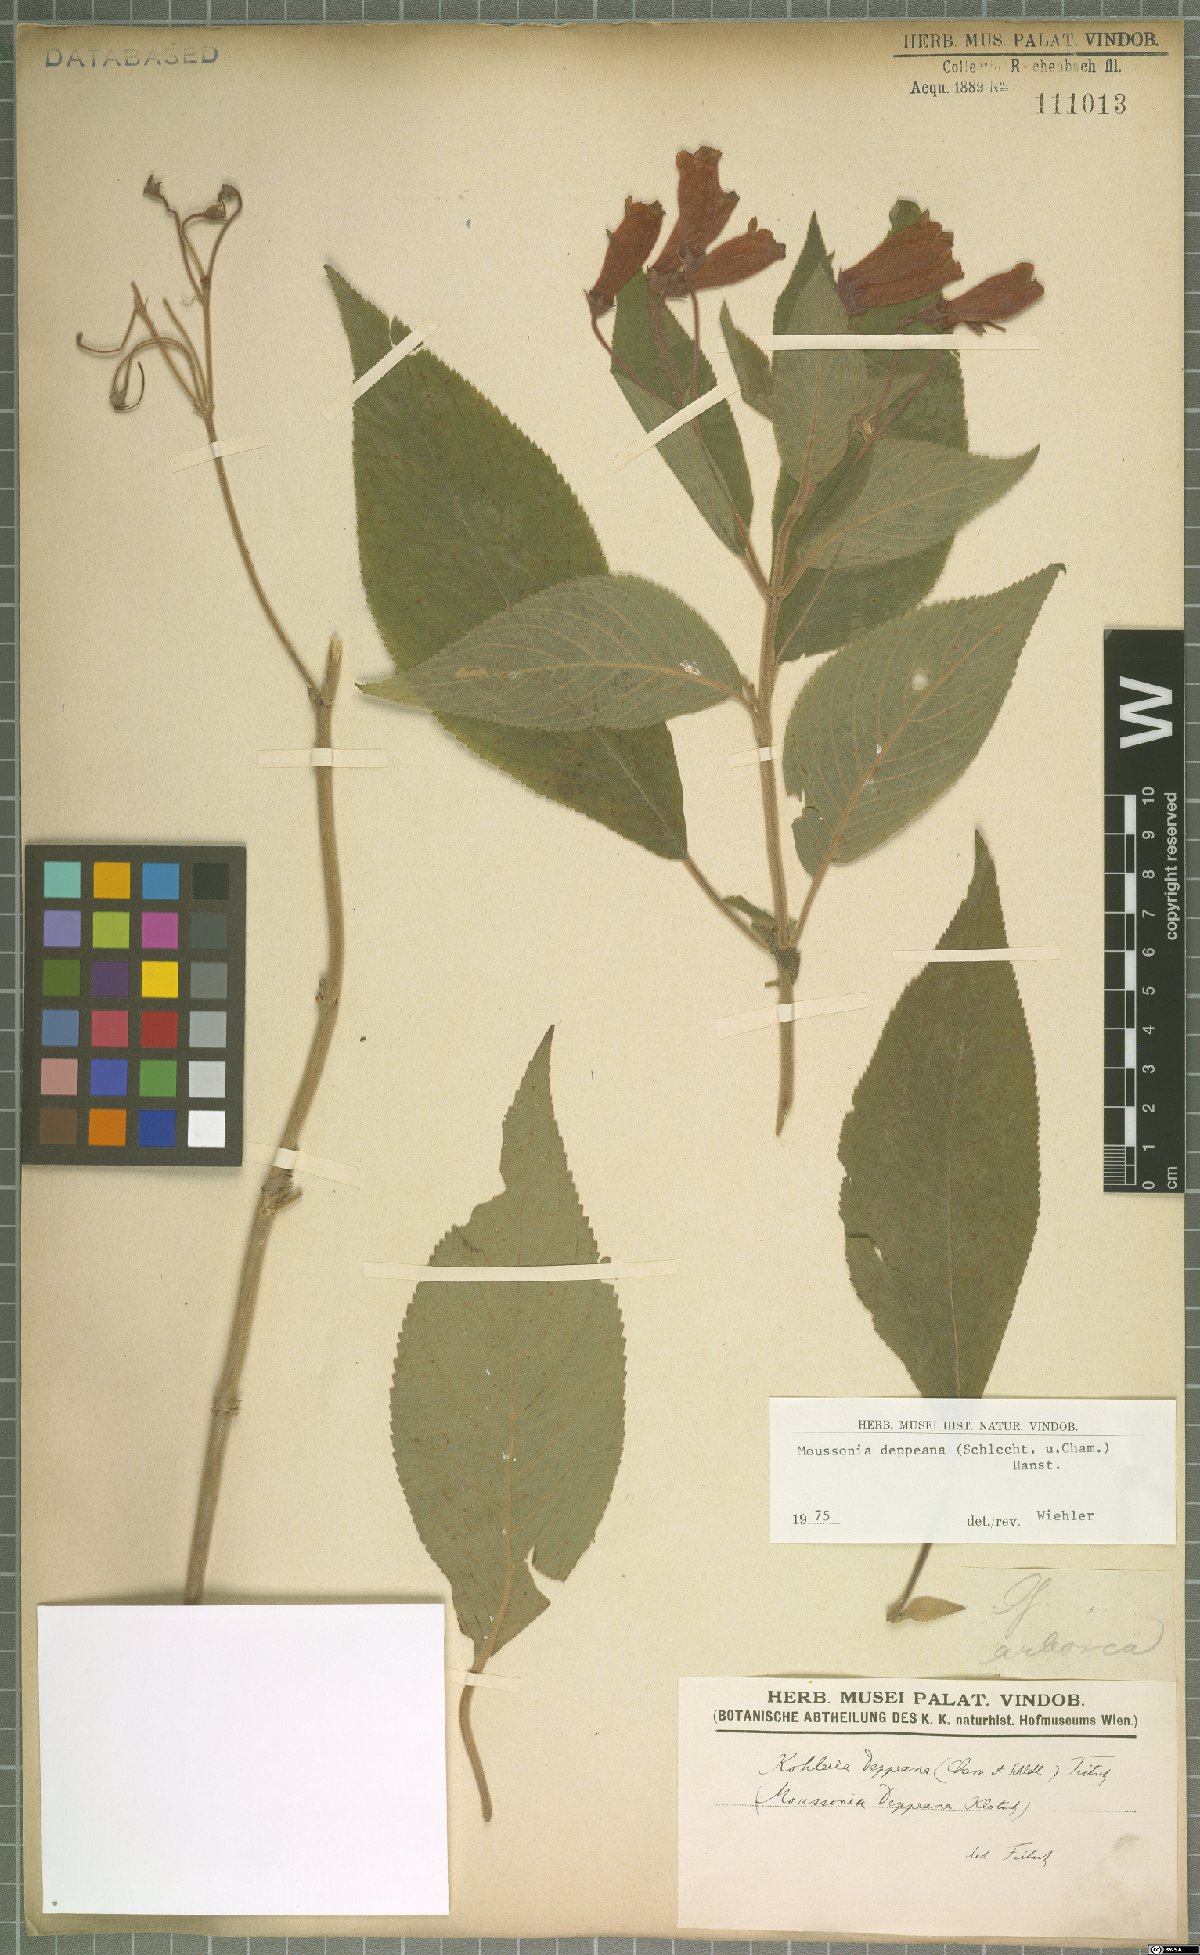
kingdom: Plantae
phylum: Tracheophyta
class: Magnoliopsida
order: Lamiales
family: Gesneriaceae
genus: Moussonia
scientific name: Moussonia deppeana
